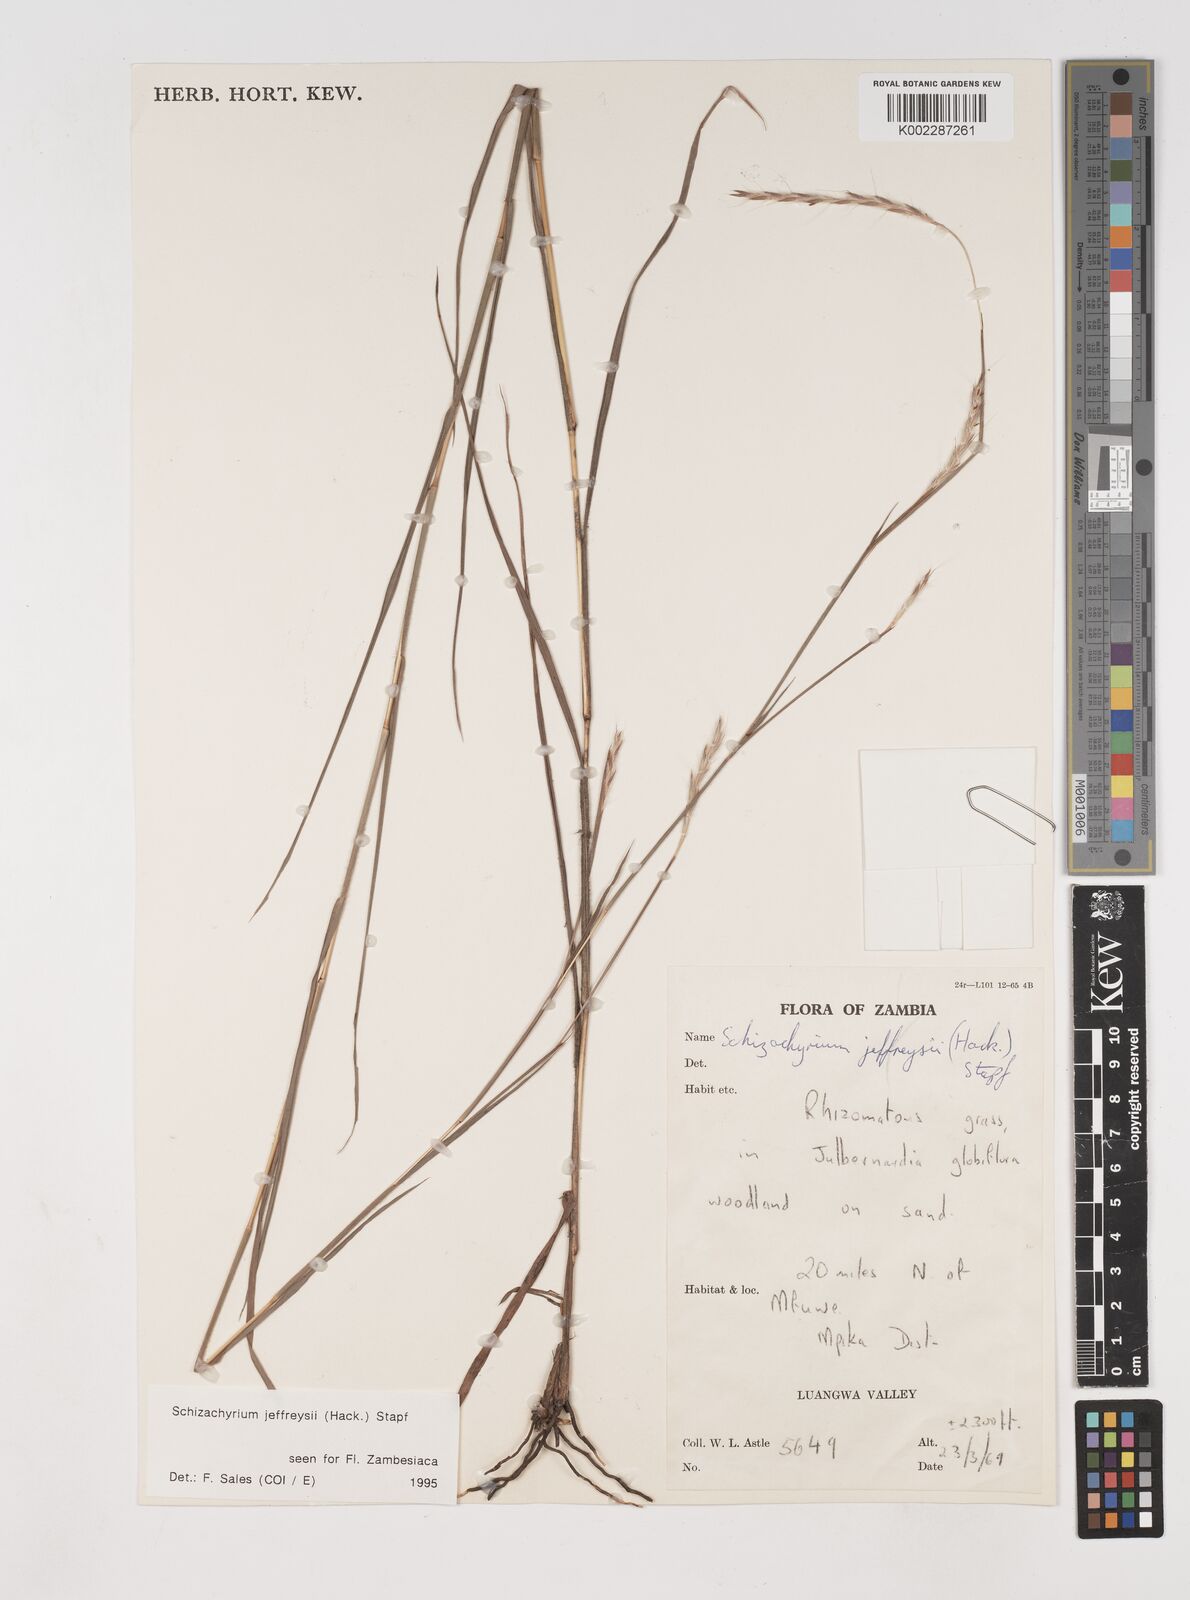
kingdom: Plantae
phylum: Tracheophyta
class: Liliopsida
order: Poales
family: Poaceae
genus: Schizachyrium
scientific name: Schizachyrium jeffreysii
